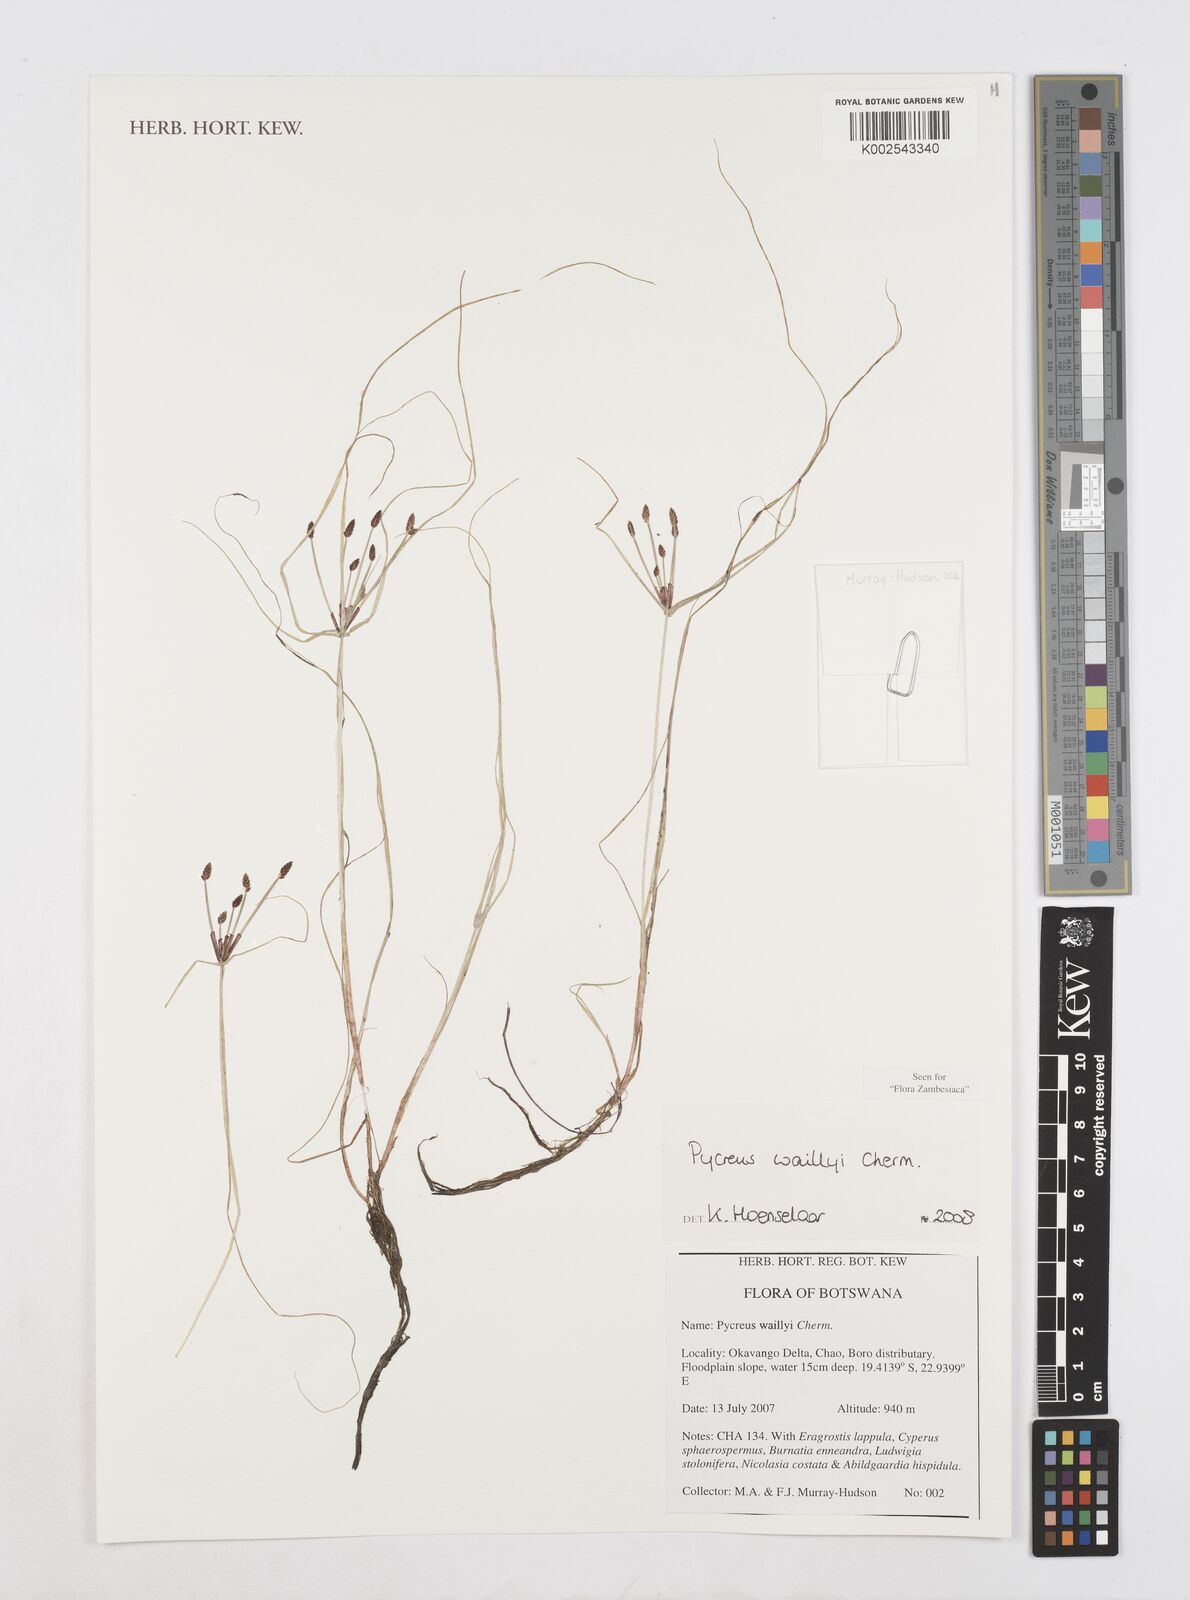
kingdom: Plantae
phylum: Tracheophyta
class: Liliopsida
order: Poales
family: Cyperaceae
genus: Cyperus
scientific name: Cyperus waillyi
